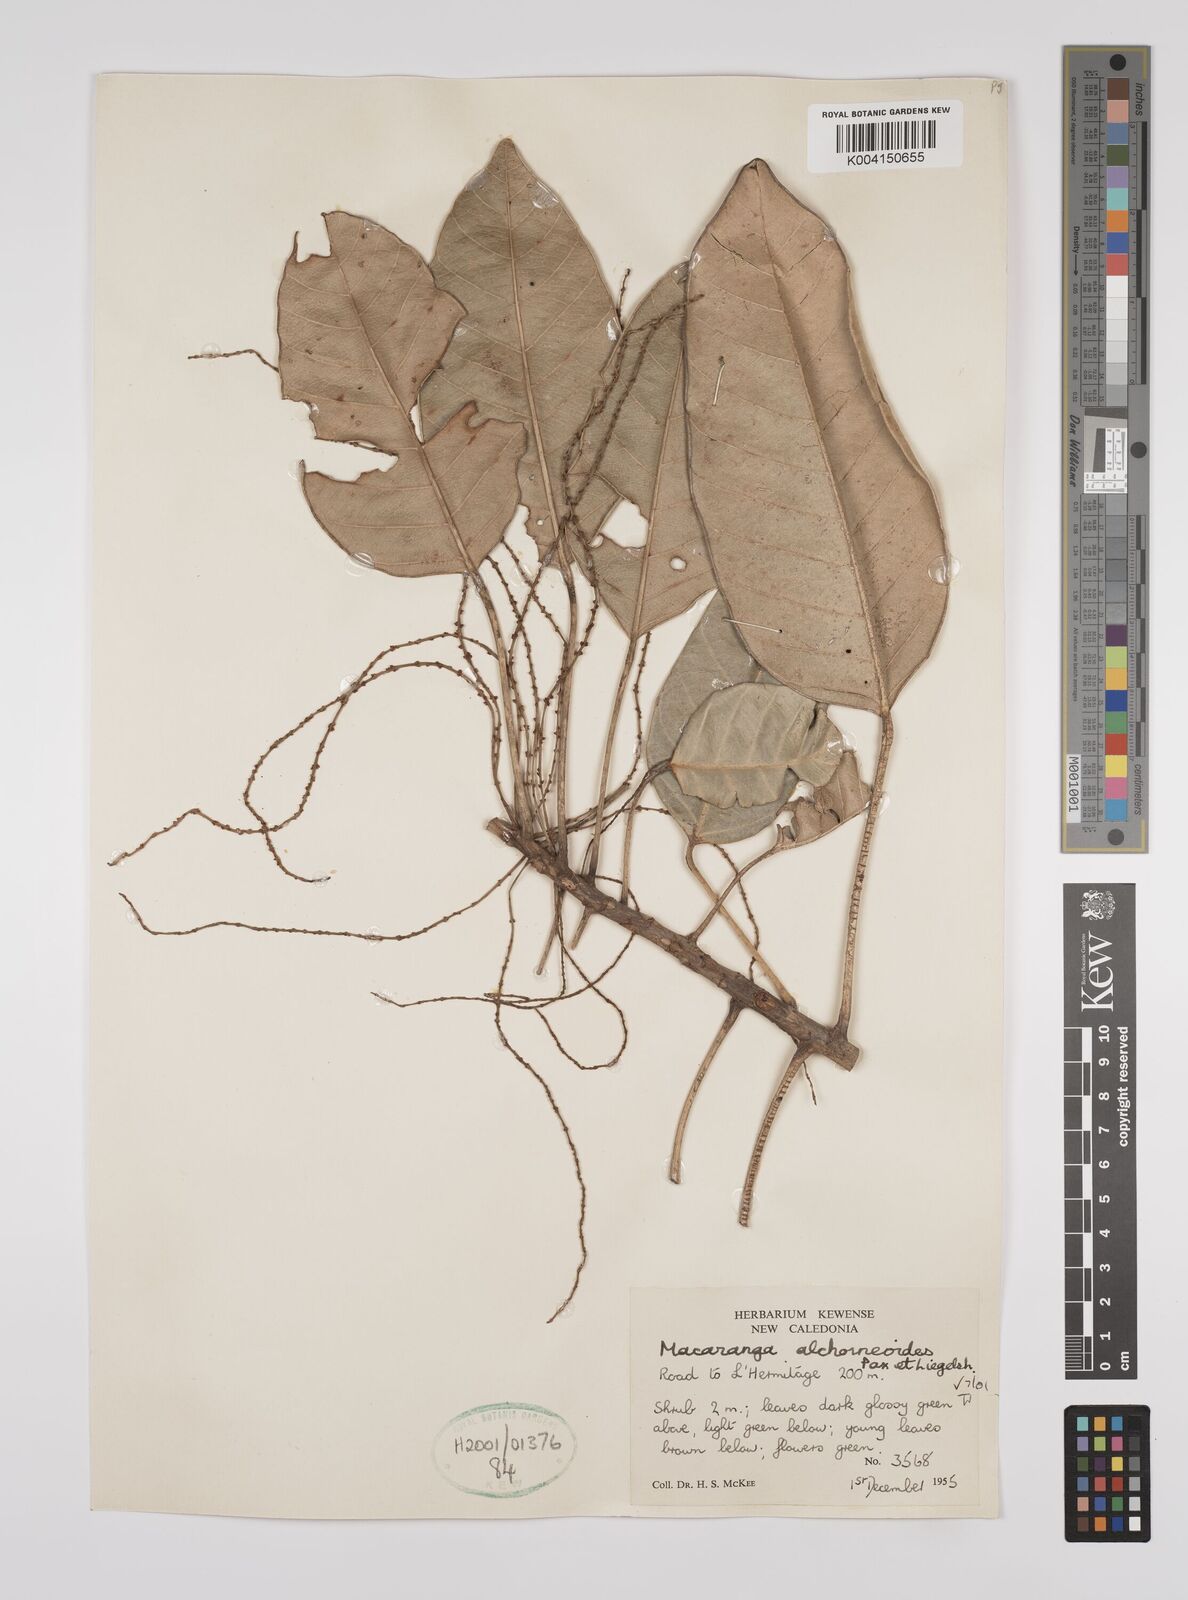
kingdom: Plantae
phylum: Tracheophyta
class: Magnoliopsida
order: Malpighiales
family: Euphorbiaceae
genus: Macaranga
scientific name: Macaranga alchorneoides
